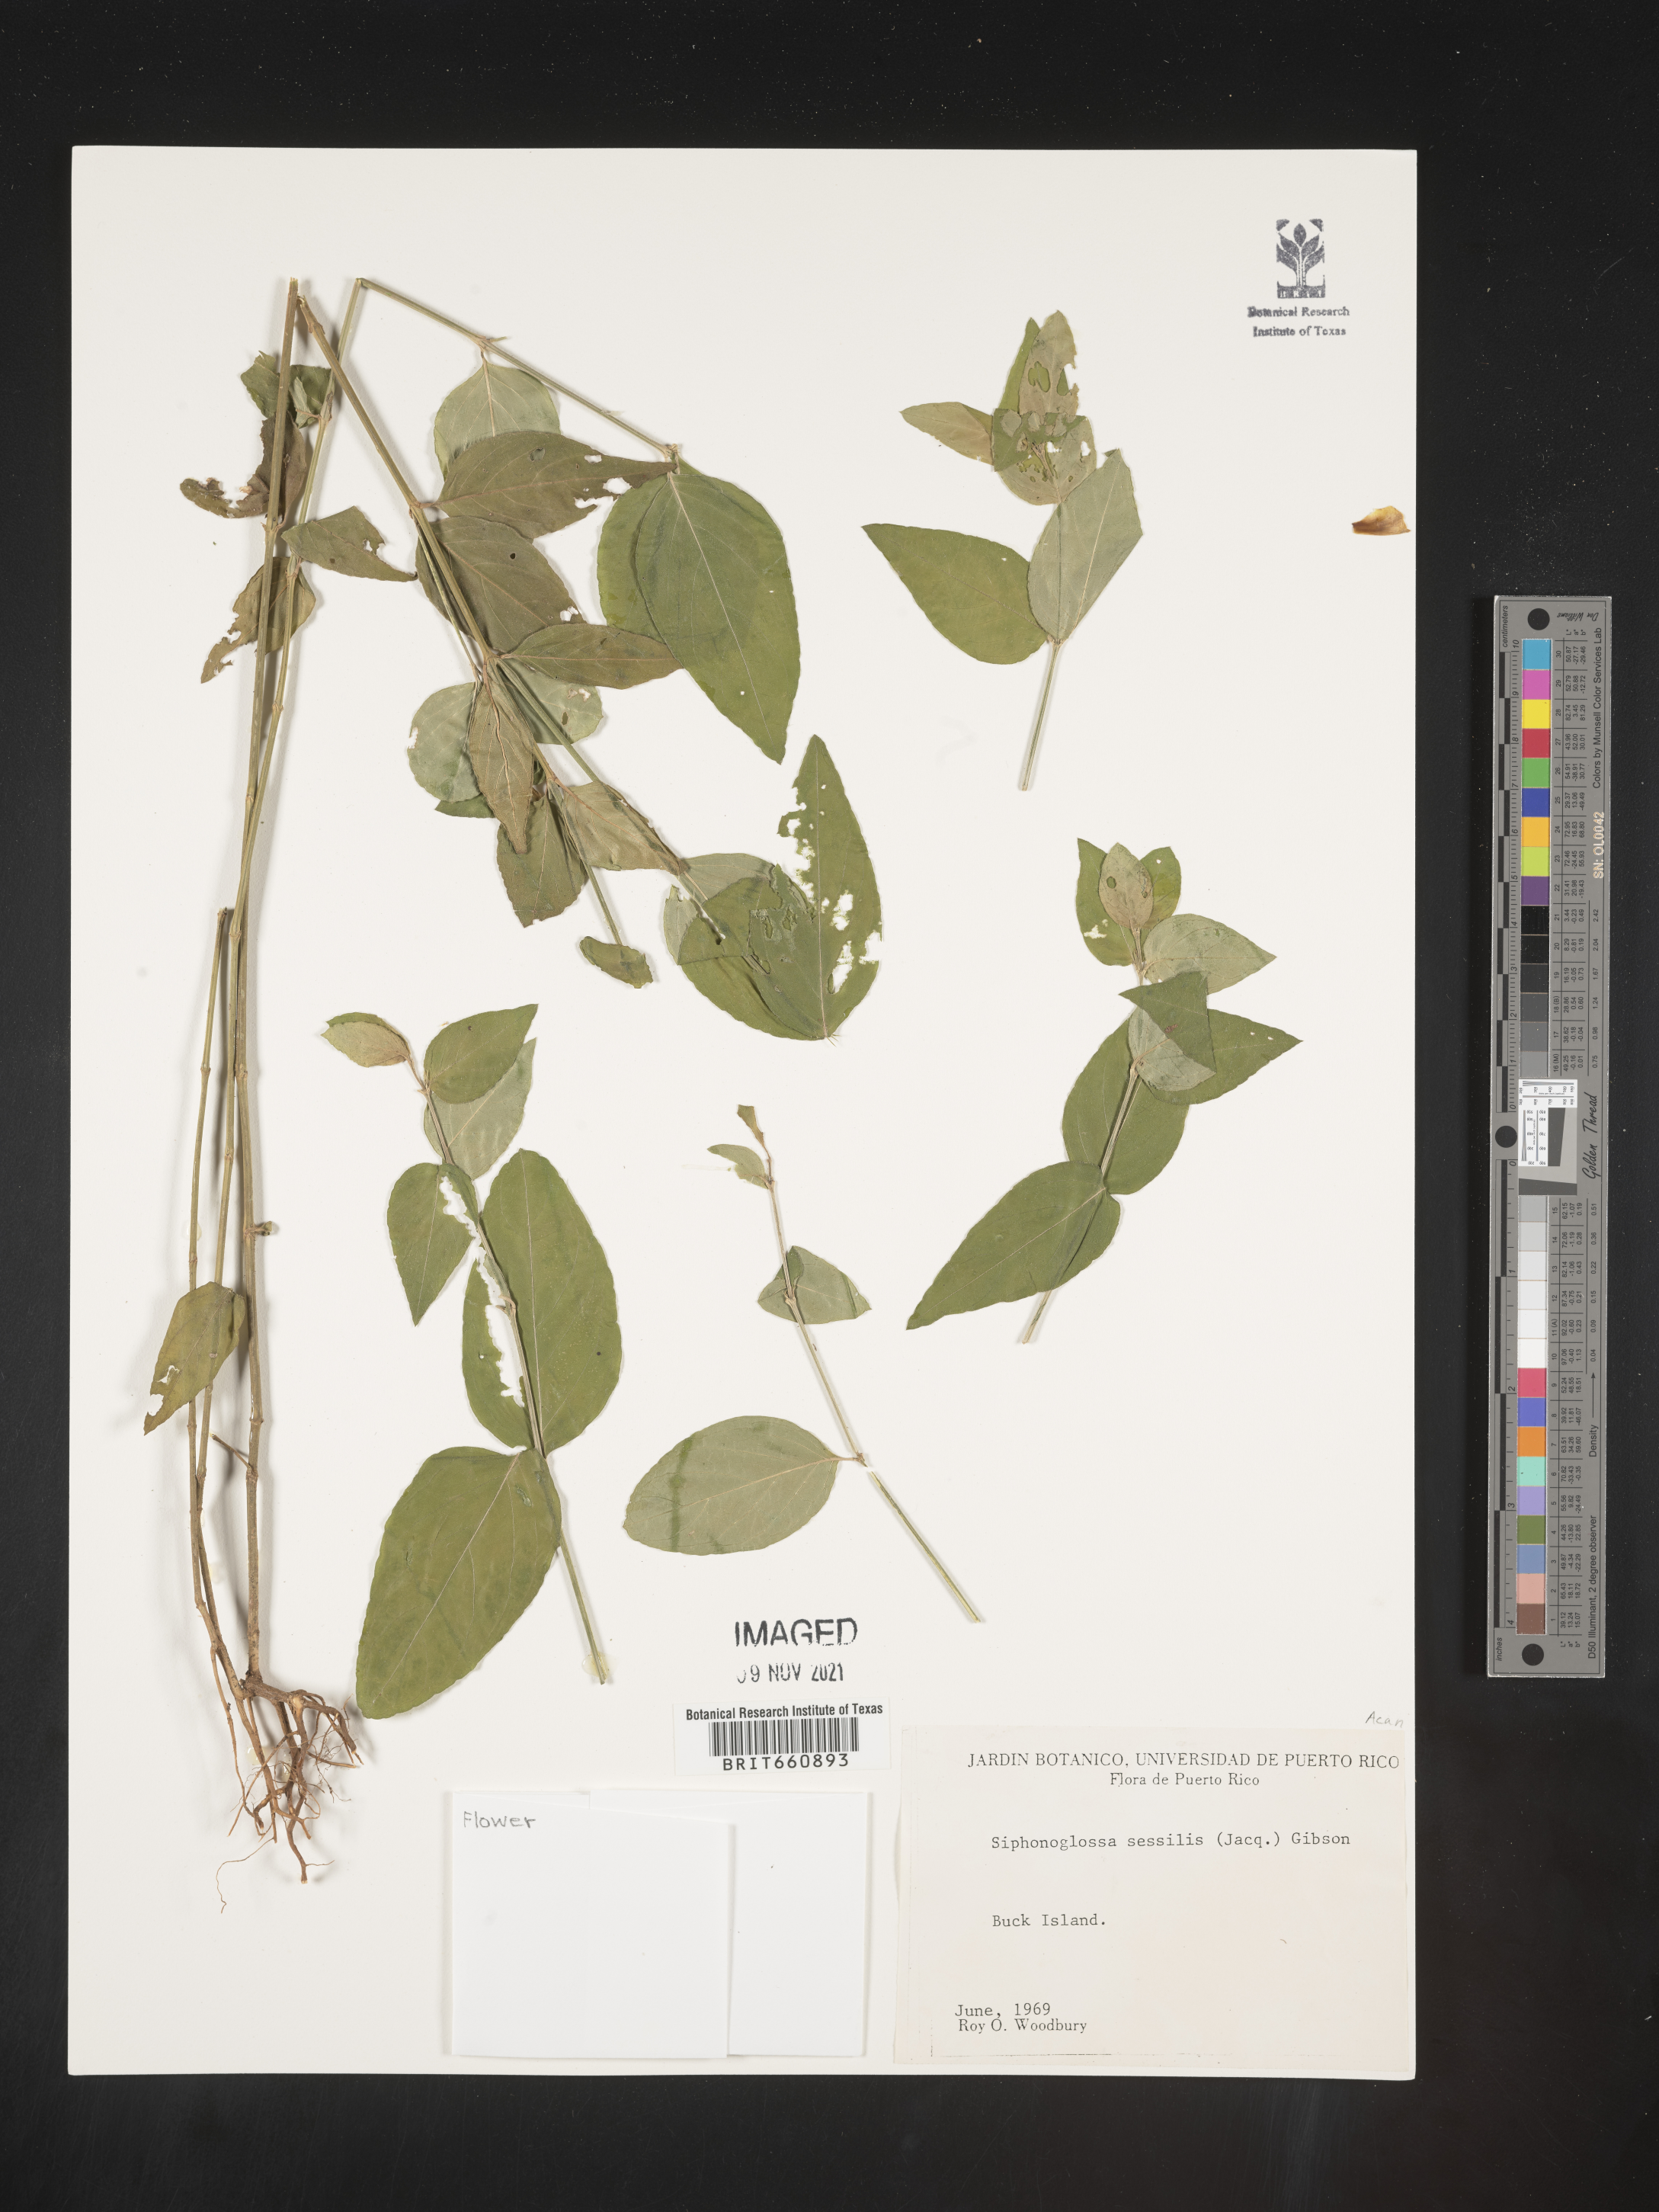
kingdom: Plantae
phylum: Tracheophyta
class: Magnoliopsida
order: Lamiales
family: Acanthaceae
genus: Justicia
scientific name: Justicia
